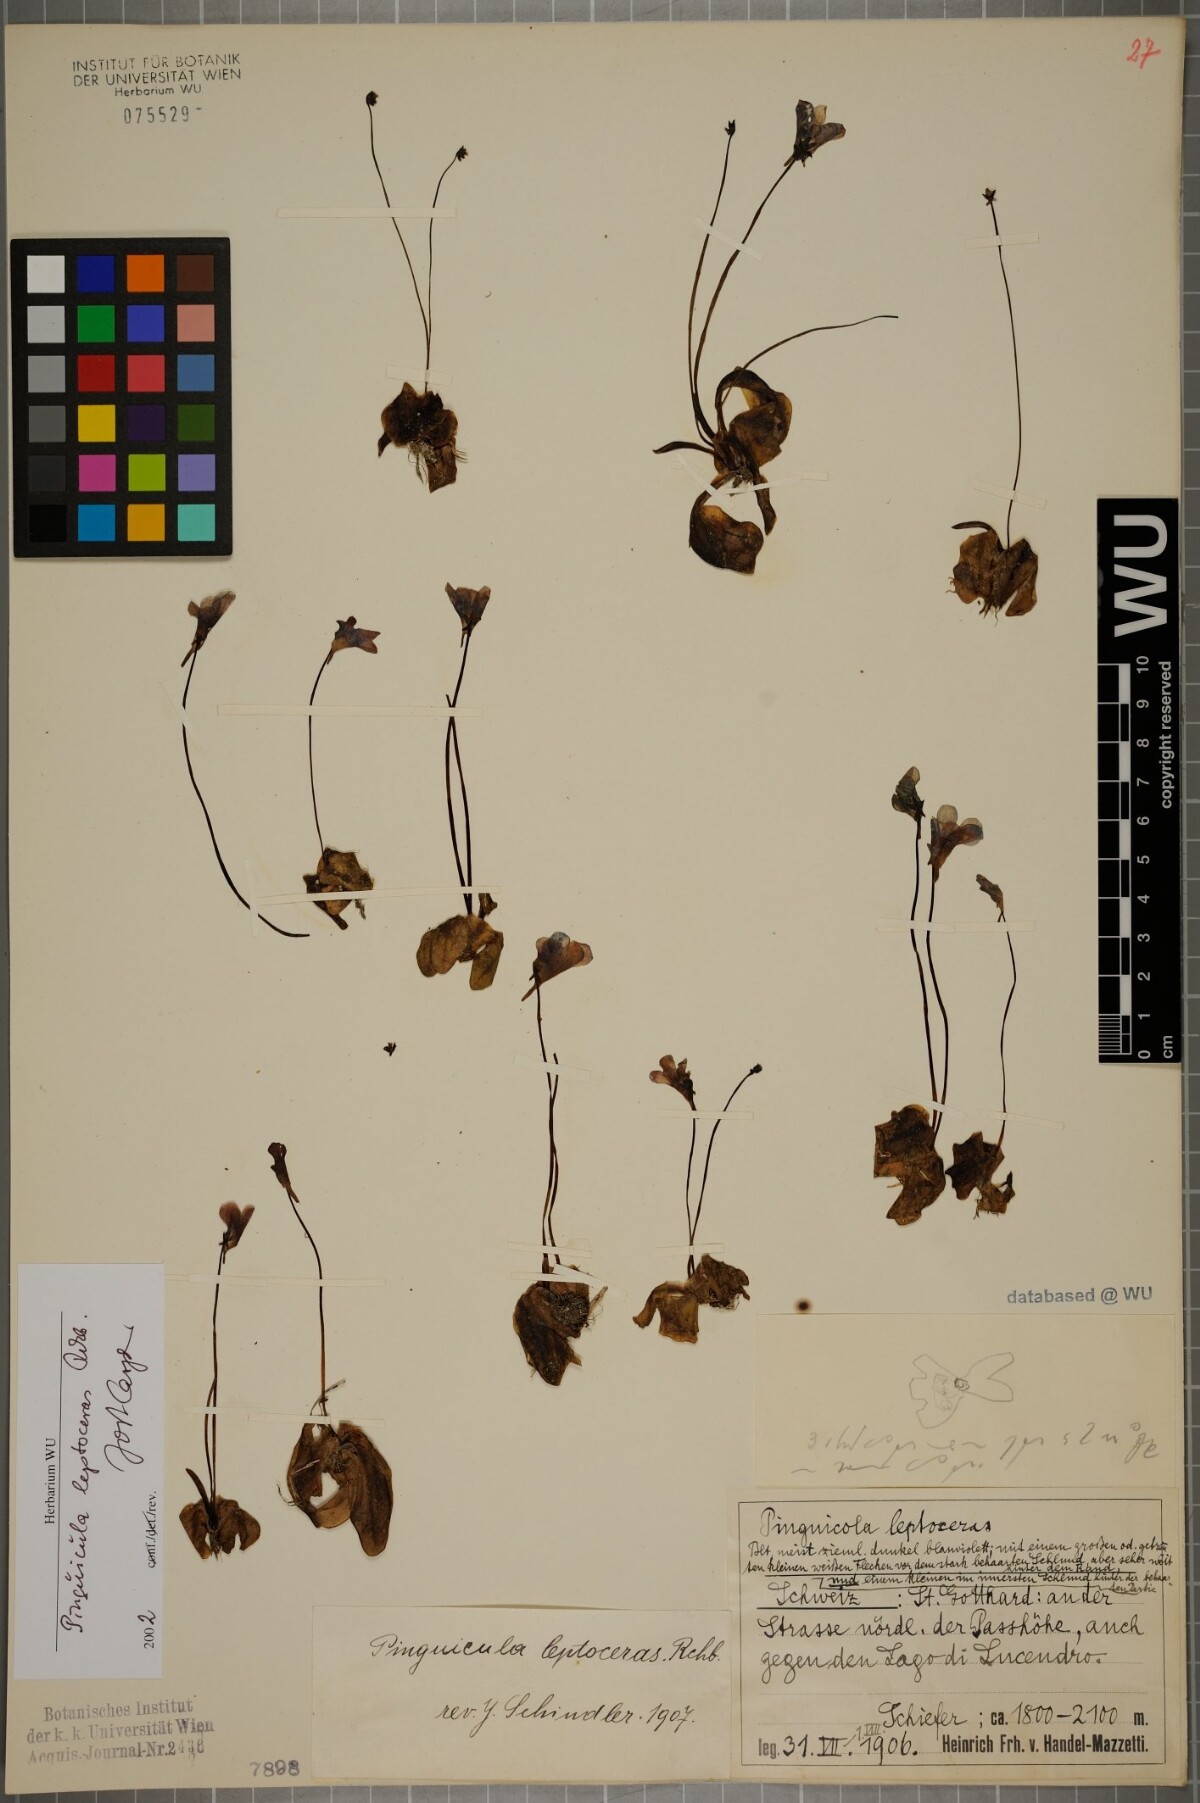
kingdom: Plantae
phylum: Tracheophyta
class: Magnoliopsida
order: Lamiales
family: Lentibulariaceae
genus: Pinguicula
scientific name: Pinguicula leptoceras
